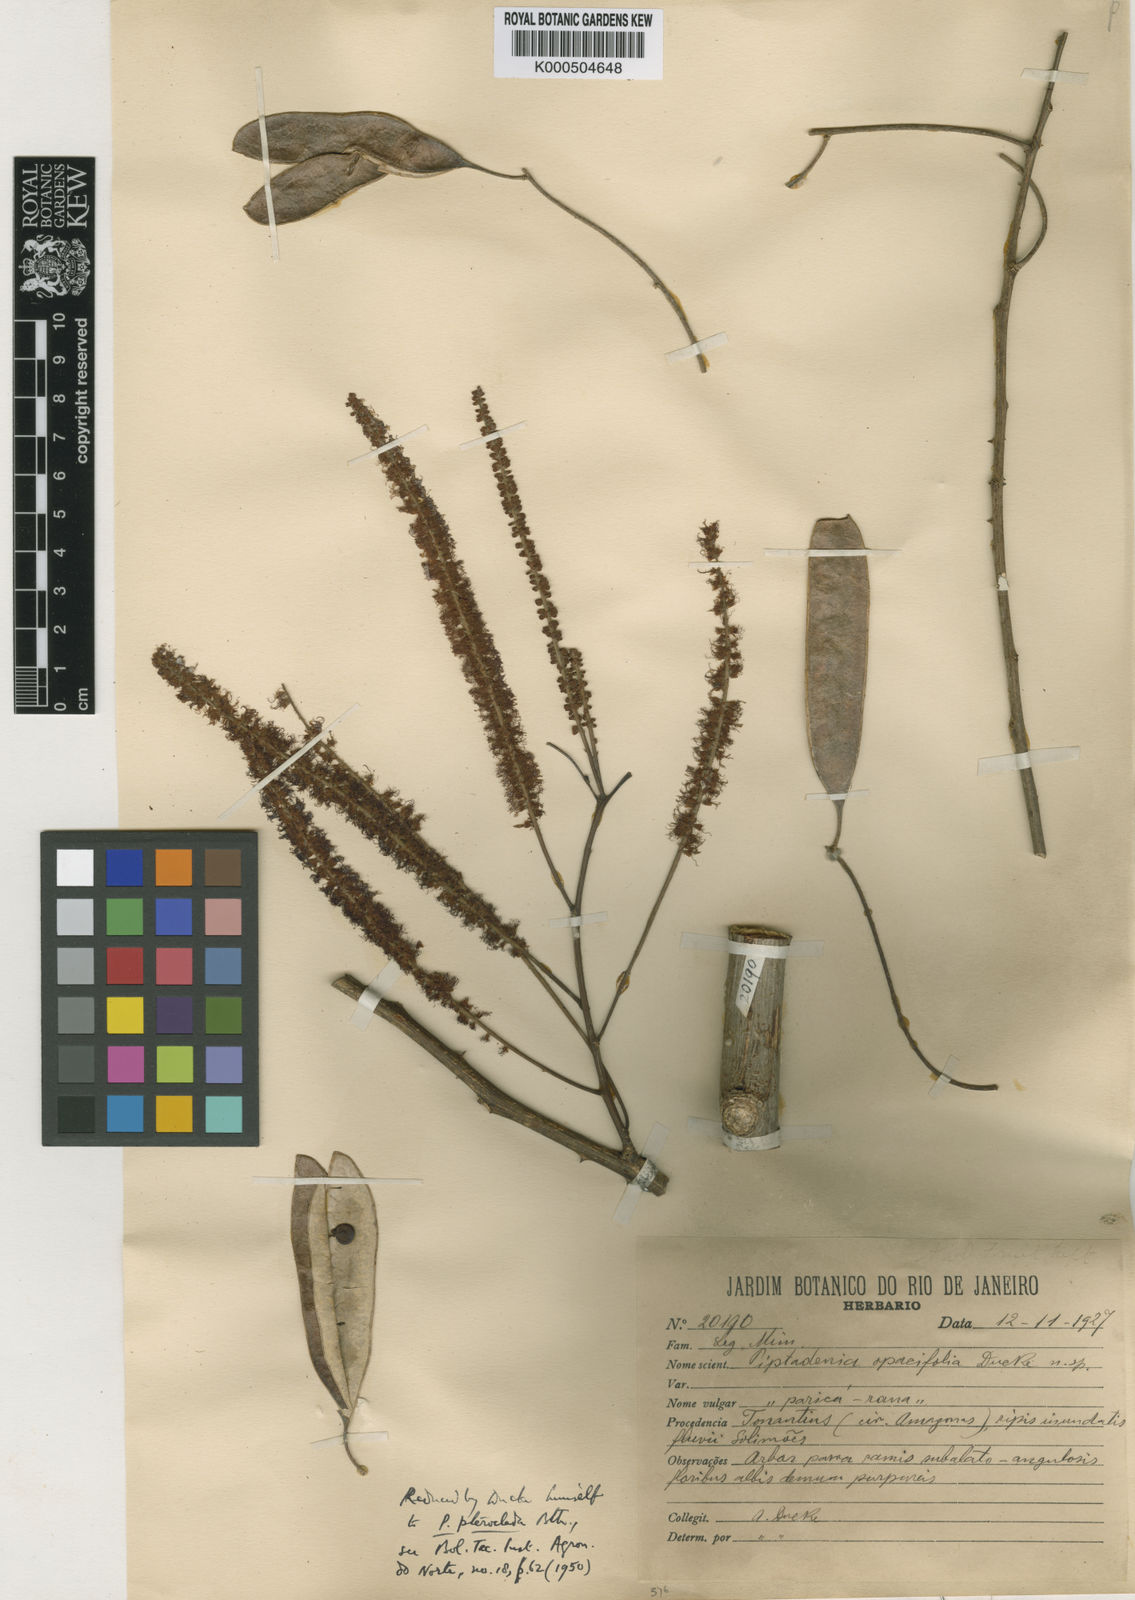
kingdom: Plantae
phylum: Tracheophyta
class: Magnoliopsida
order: Fabales
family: Fabaceae
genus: Piptadenia
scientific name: Piptadenia pteroclada
